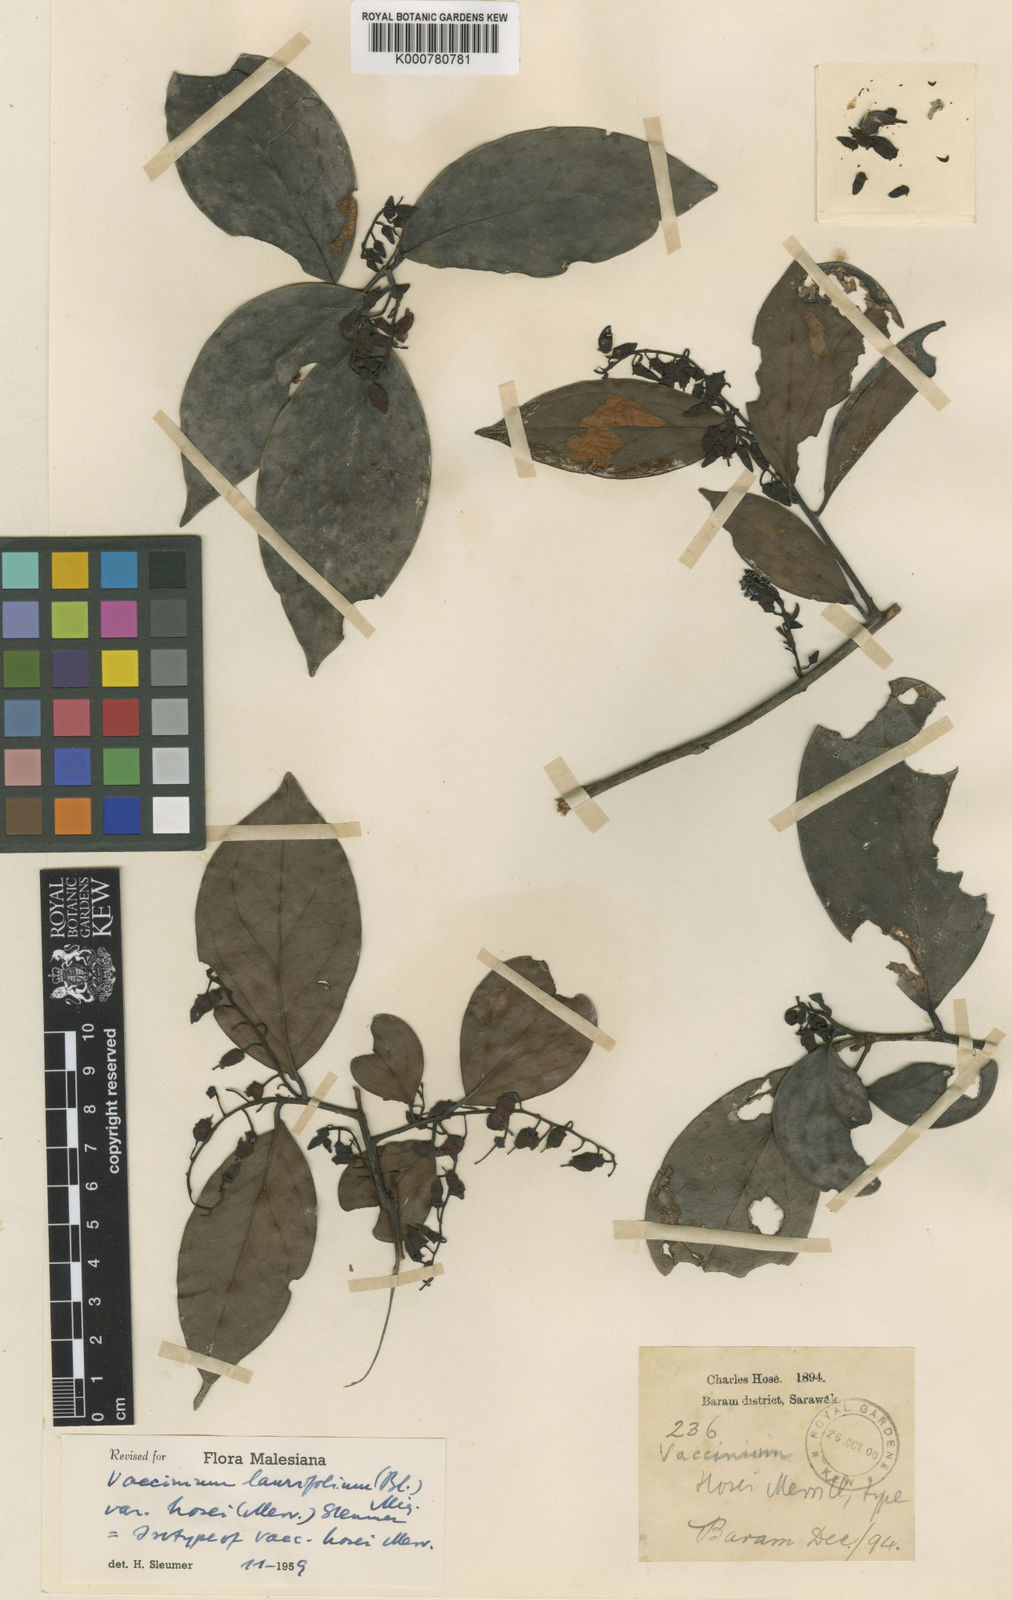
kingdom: Plantae
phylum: Tracheophyta
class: Magnoliopsida
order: Ericales
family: Ericaceae
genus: Vaccinium
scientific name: Vaccinium laurifolium
